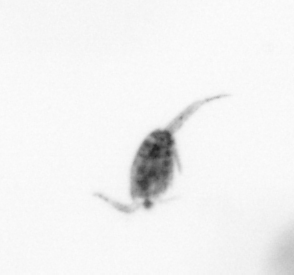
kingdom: Animalia
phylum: Arthropoda
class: Copepoda
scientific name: Copepoda
